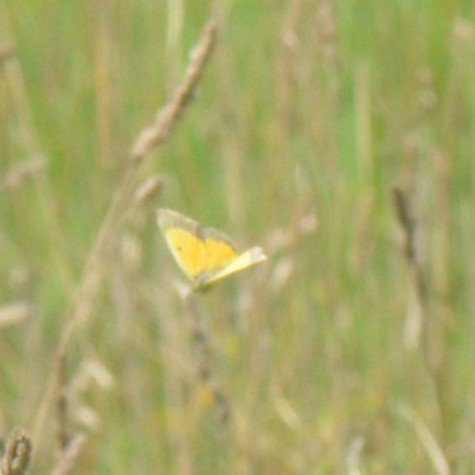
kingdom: Animalia
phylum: Arthropoda
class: Insecta
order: Lepidoptera
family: Pieridae
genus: Colias
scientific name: Colias eurytheme
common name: Orange Sulphur
